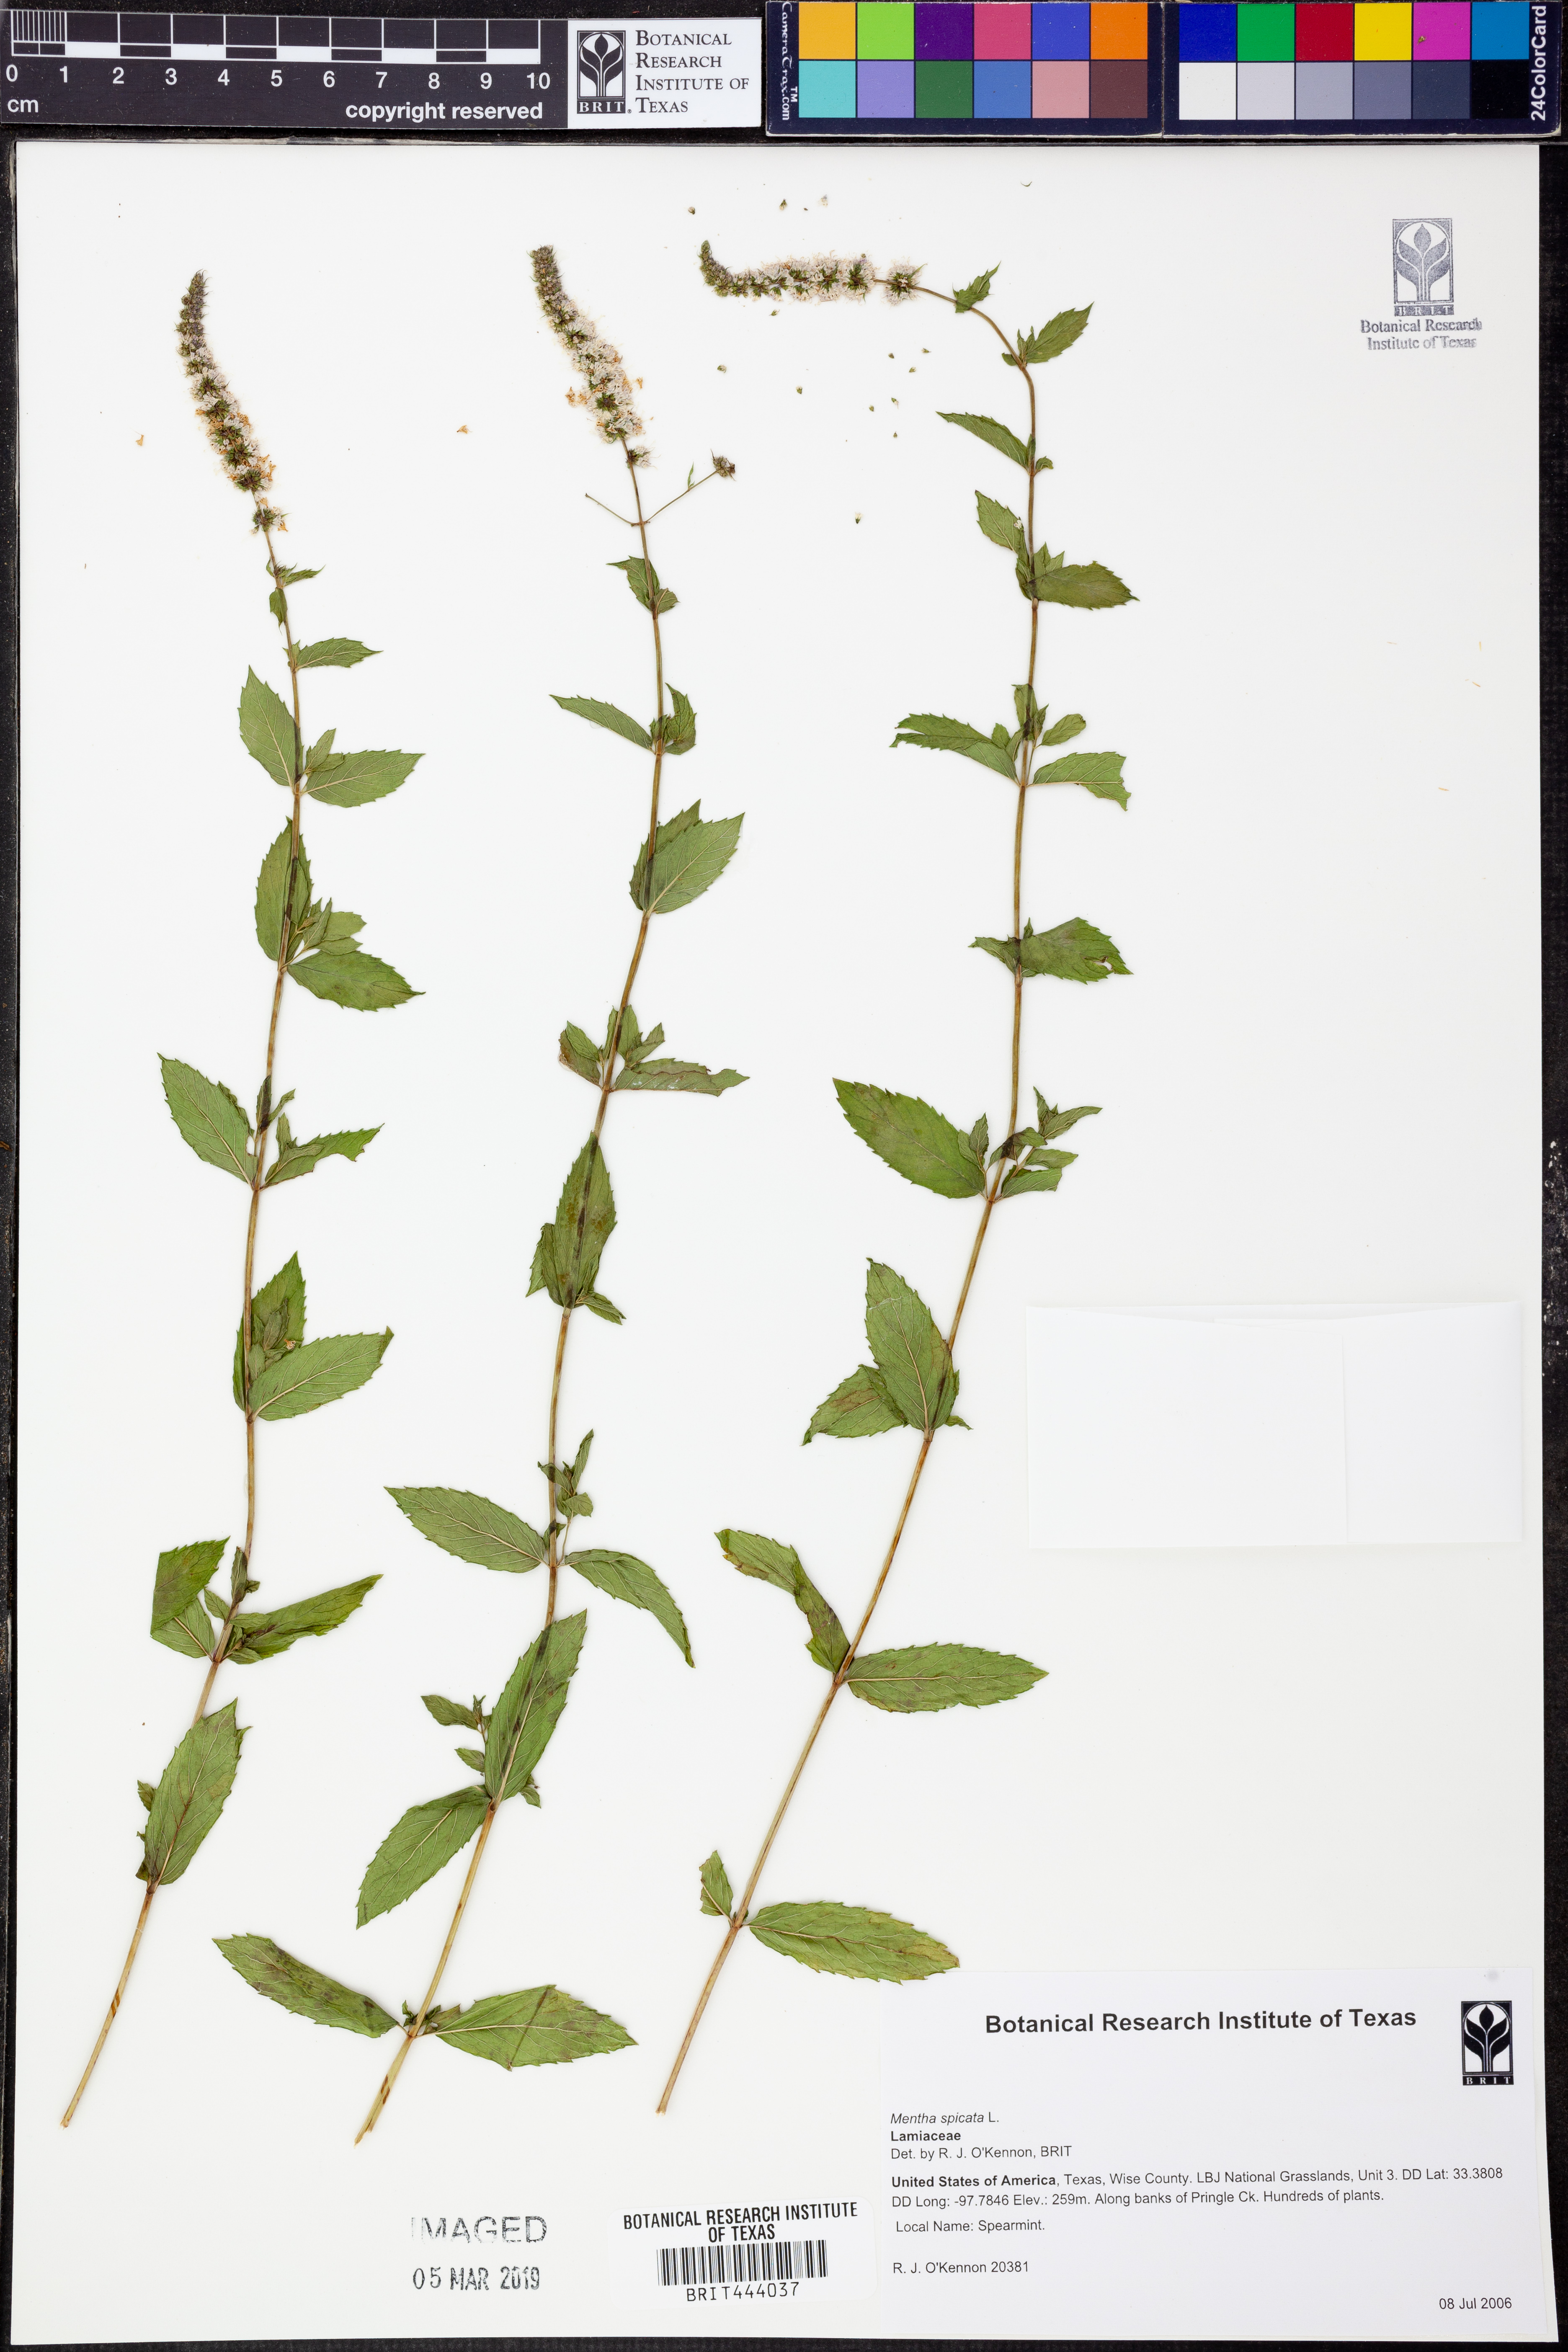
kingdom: Plantae
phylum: Tracheophyta
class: Magnoliopsida
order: Lamiales
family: Lamiaceae
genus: Mentha
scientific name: Mentha spicata
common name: Spearmint
